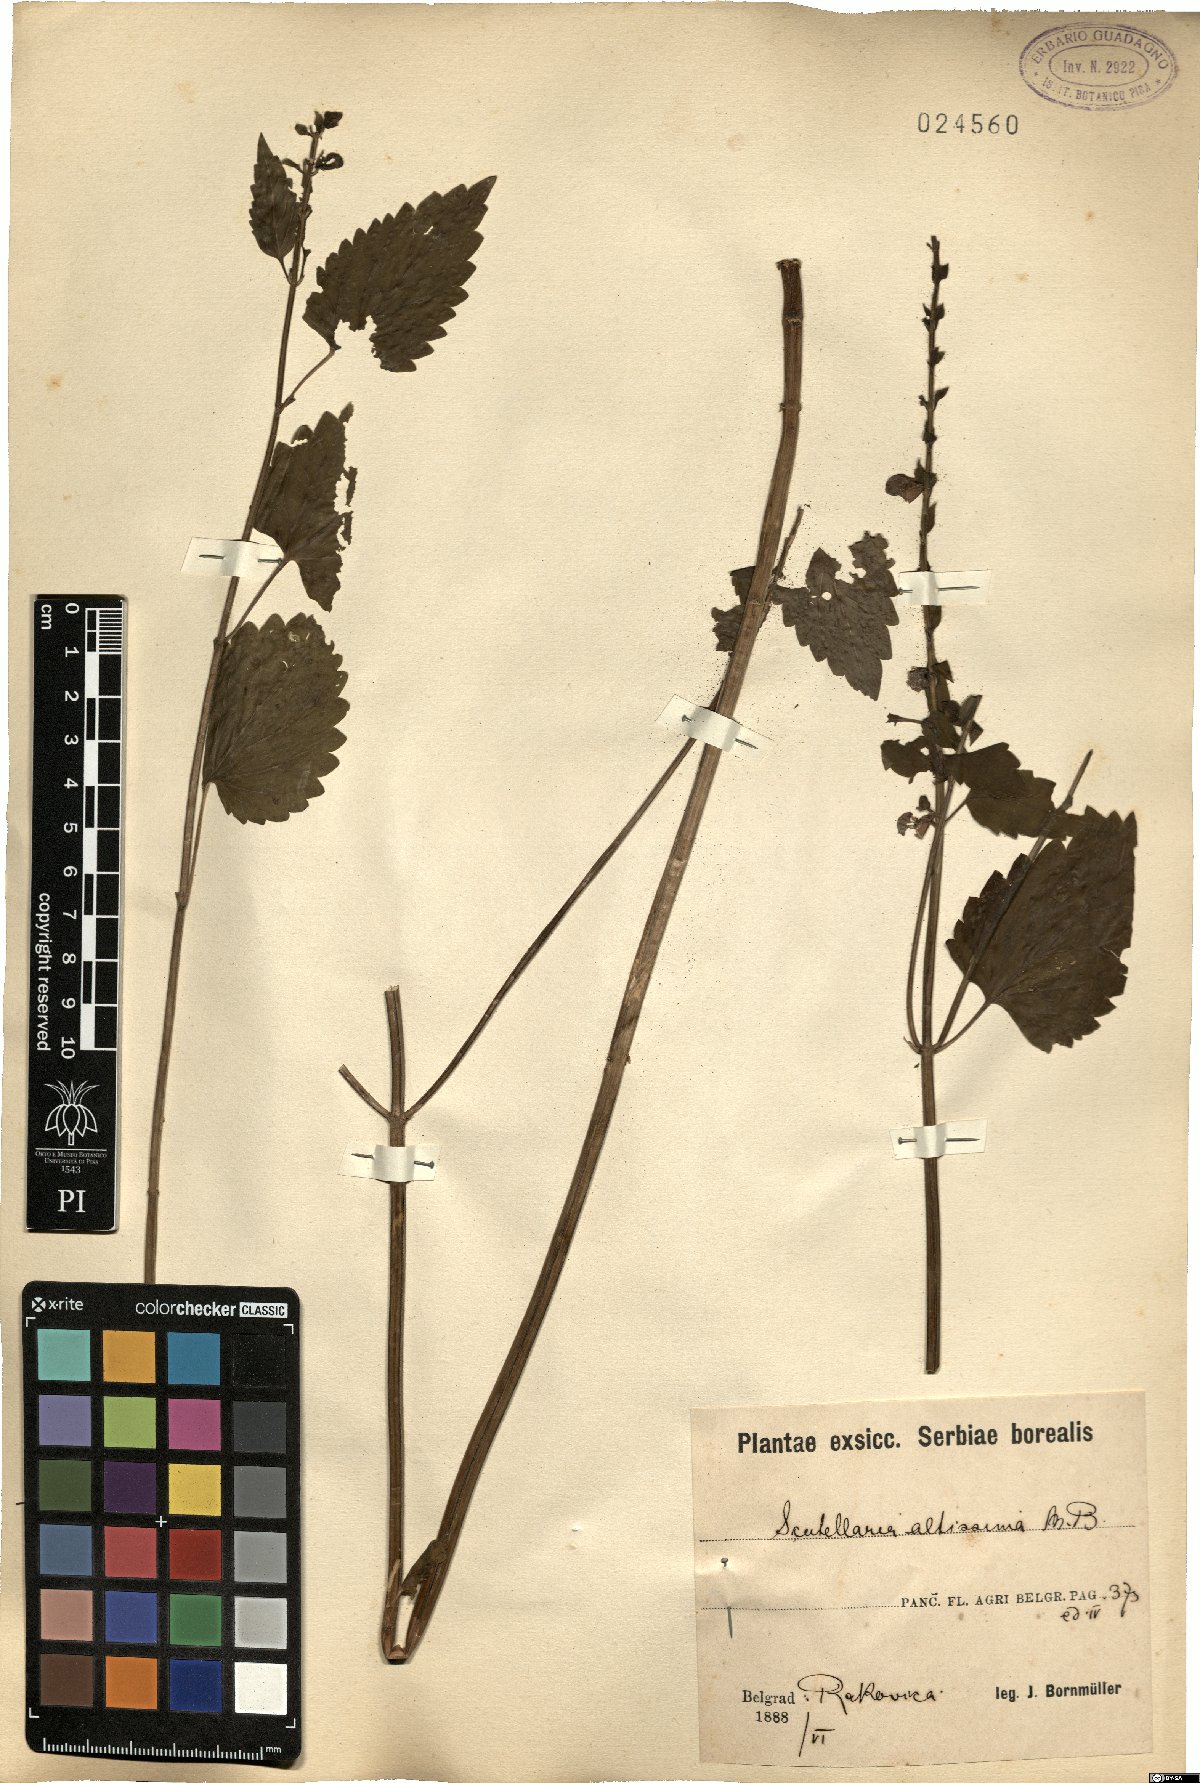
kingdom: Plantae
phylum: Tracheophyta
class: Magnoliopsida
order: Lamiales
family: Lamiaceae
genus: Scutellaria
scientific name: Scutellaria altissima
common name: Somerset skullcap
